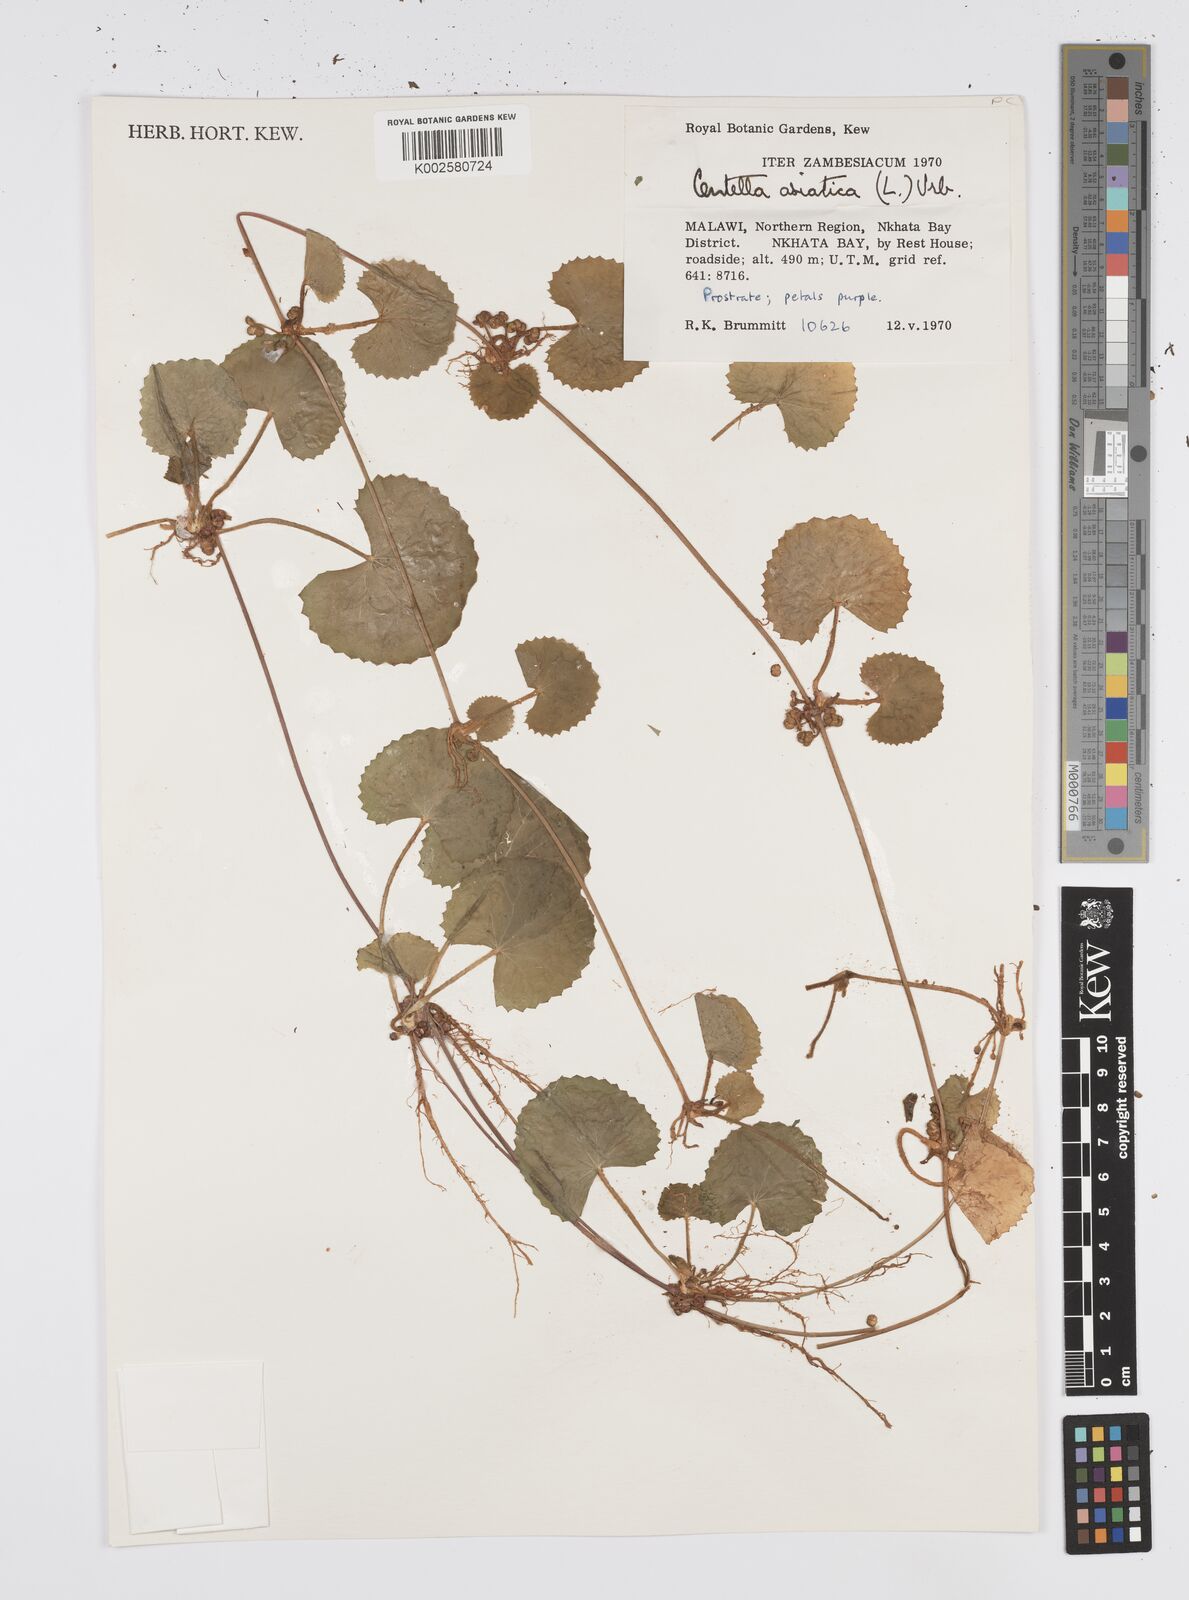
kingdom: Plantae
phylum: Tracheophyta
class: Magnoliopsida
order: Apiales
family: Apiaceae
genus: Centella
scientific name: Centella asiatica
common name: Spadeleaf
